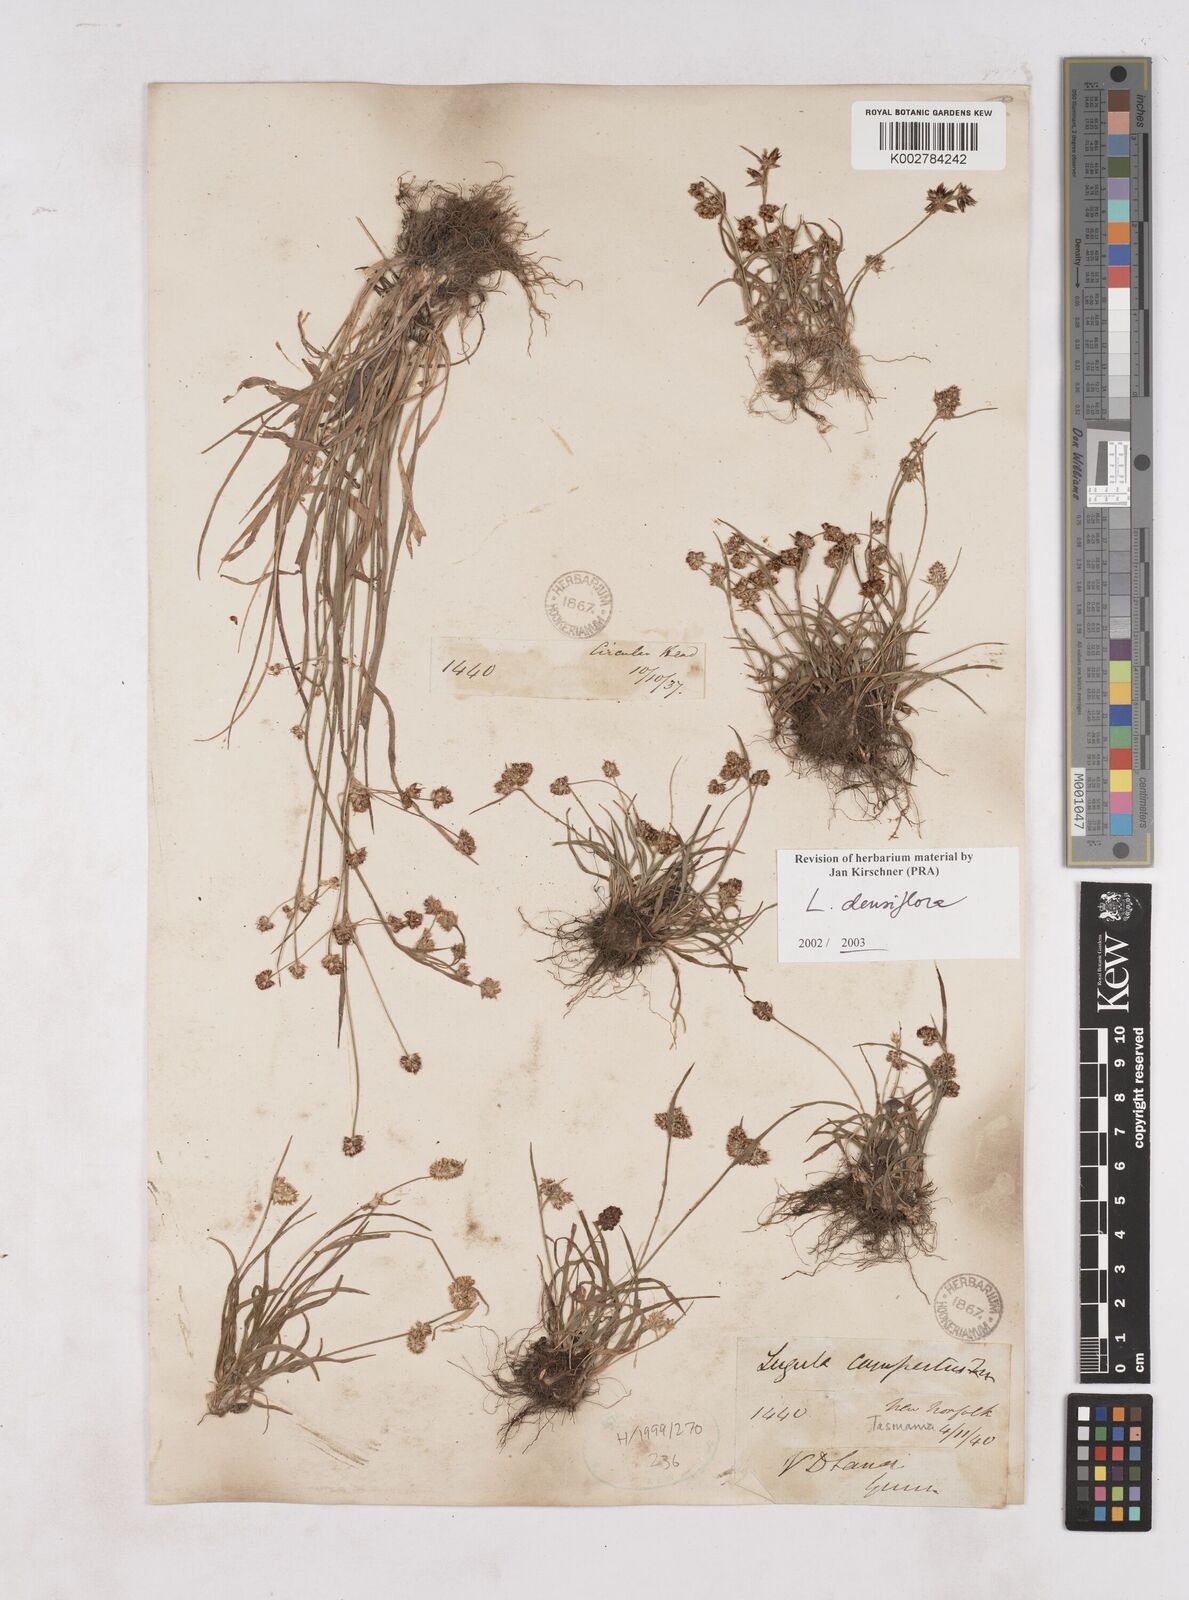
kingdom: Plantae
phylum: Tracheophyta
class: Liliopsida
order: Poales
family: Juncaceae
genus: Luzula
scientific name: Luzula densiflora
